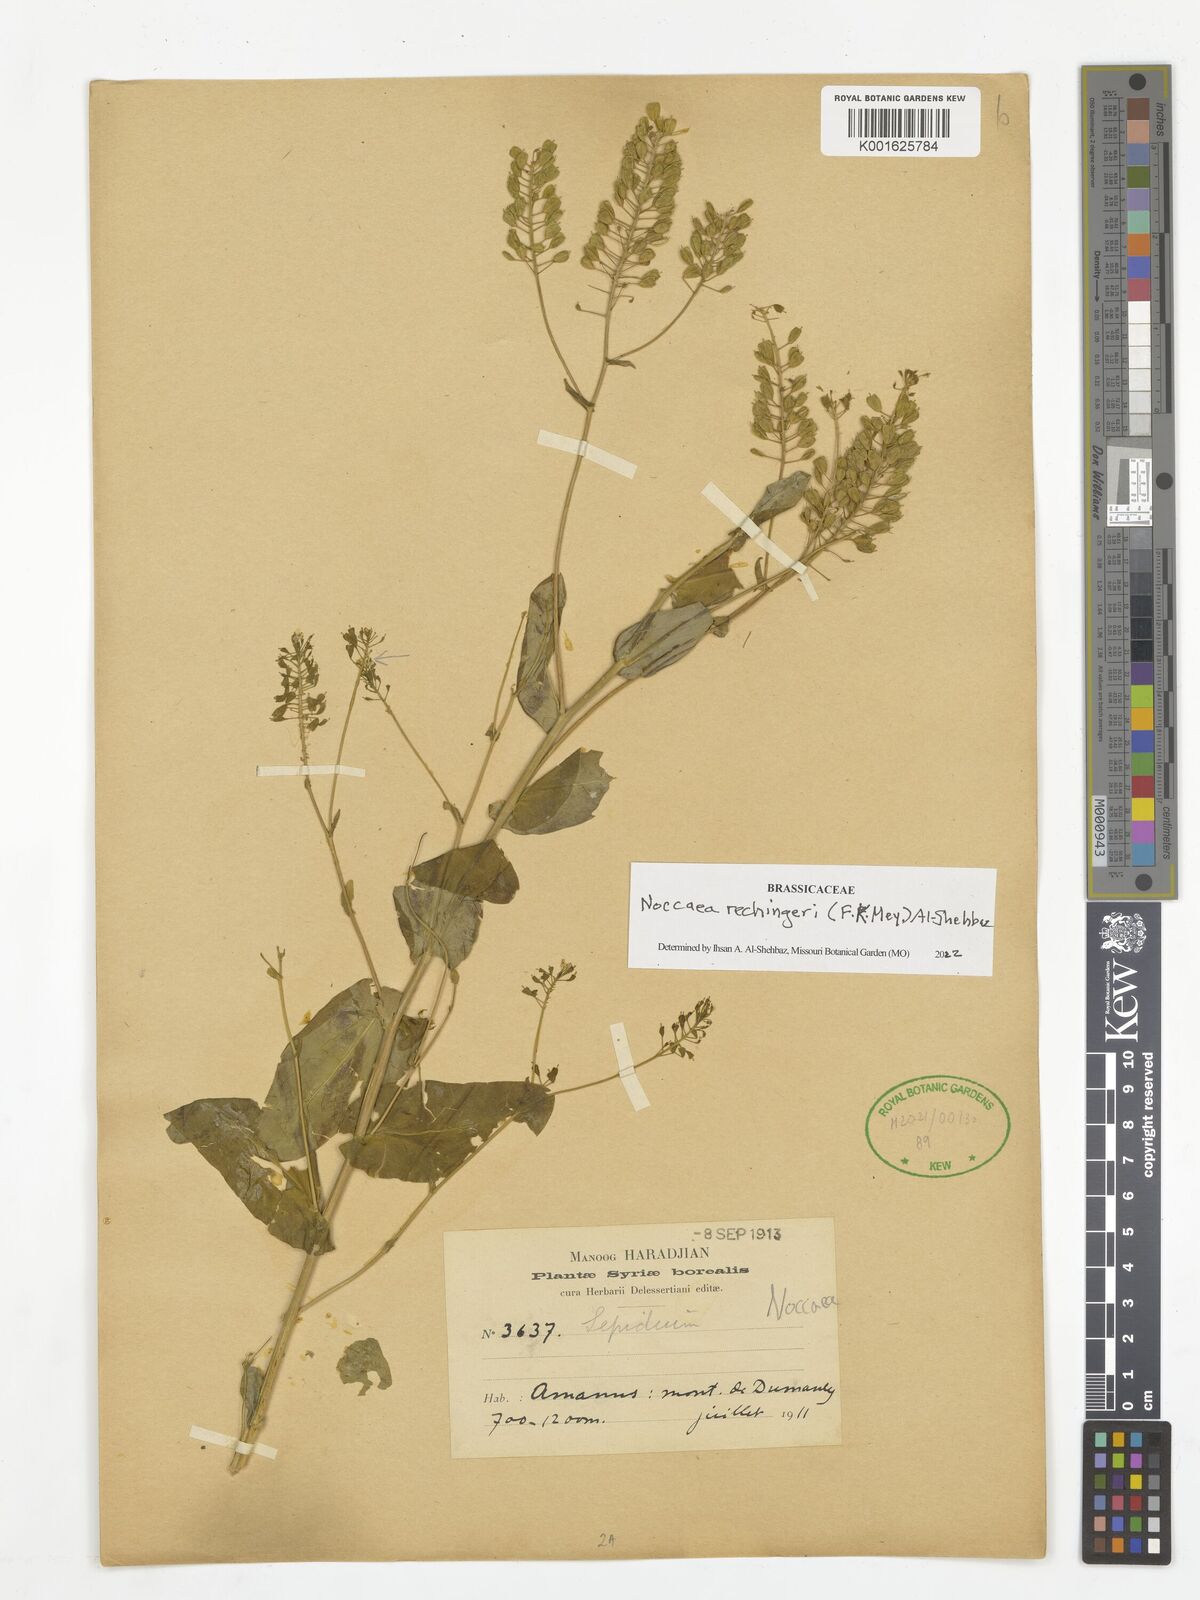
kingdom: Plantae
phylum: Tracheophyta
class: Magnoliopsida
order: Brassicales
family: Brassicaceae
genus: Noccaea
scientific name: Noccaea rechingeri
